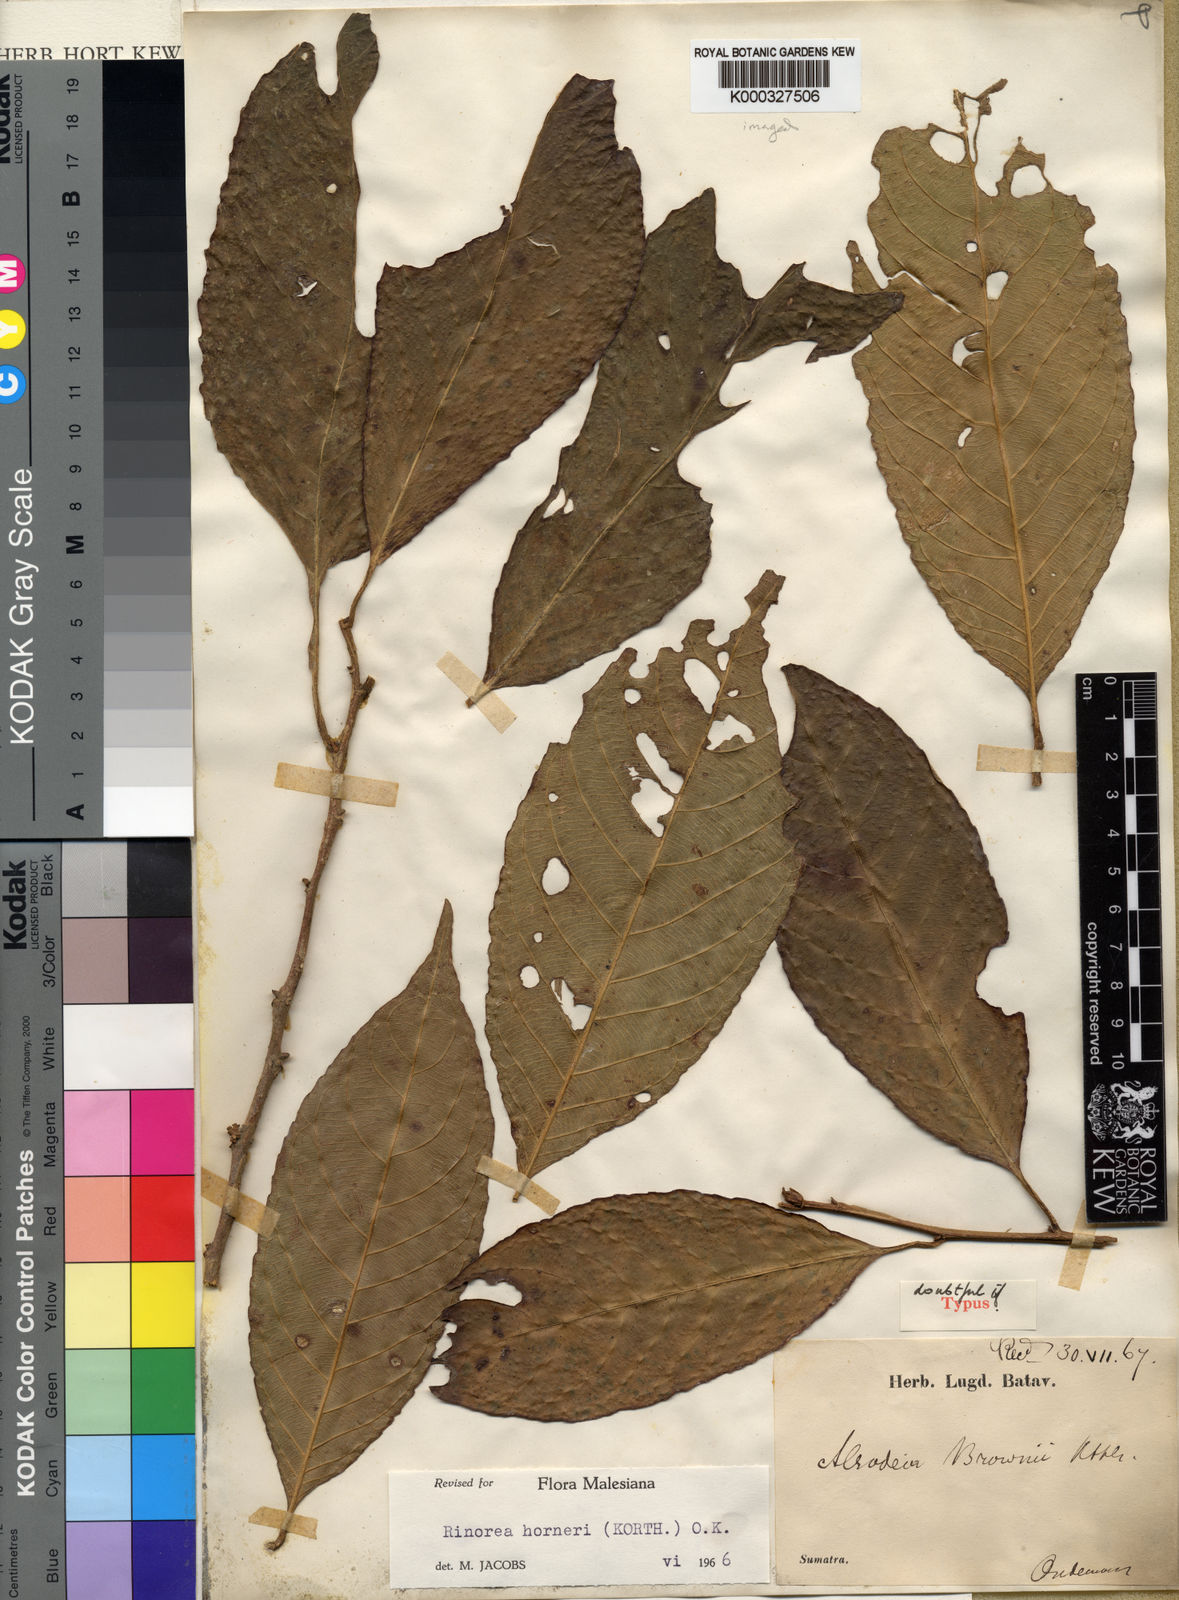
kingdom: Plantae
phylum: Tracheophyta
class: Magnoliopsida
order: Malpighiales
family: Violaceae
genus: Rinorea
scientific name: Rinorea horneri
